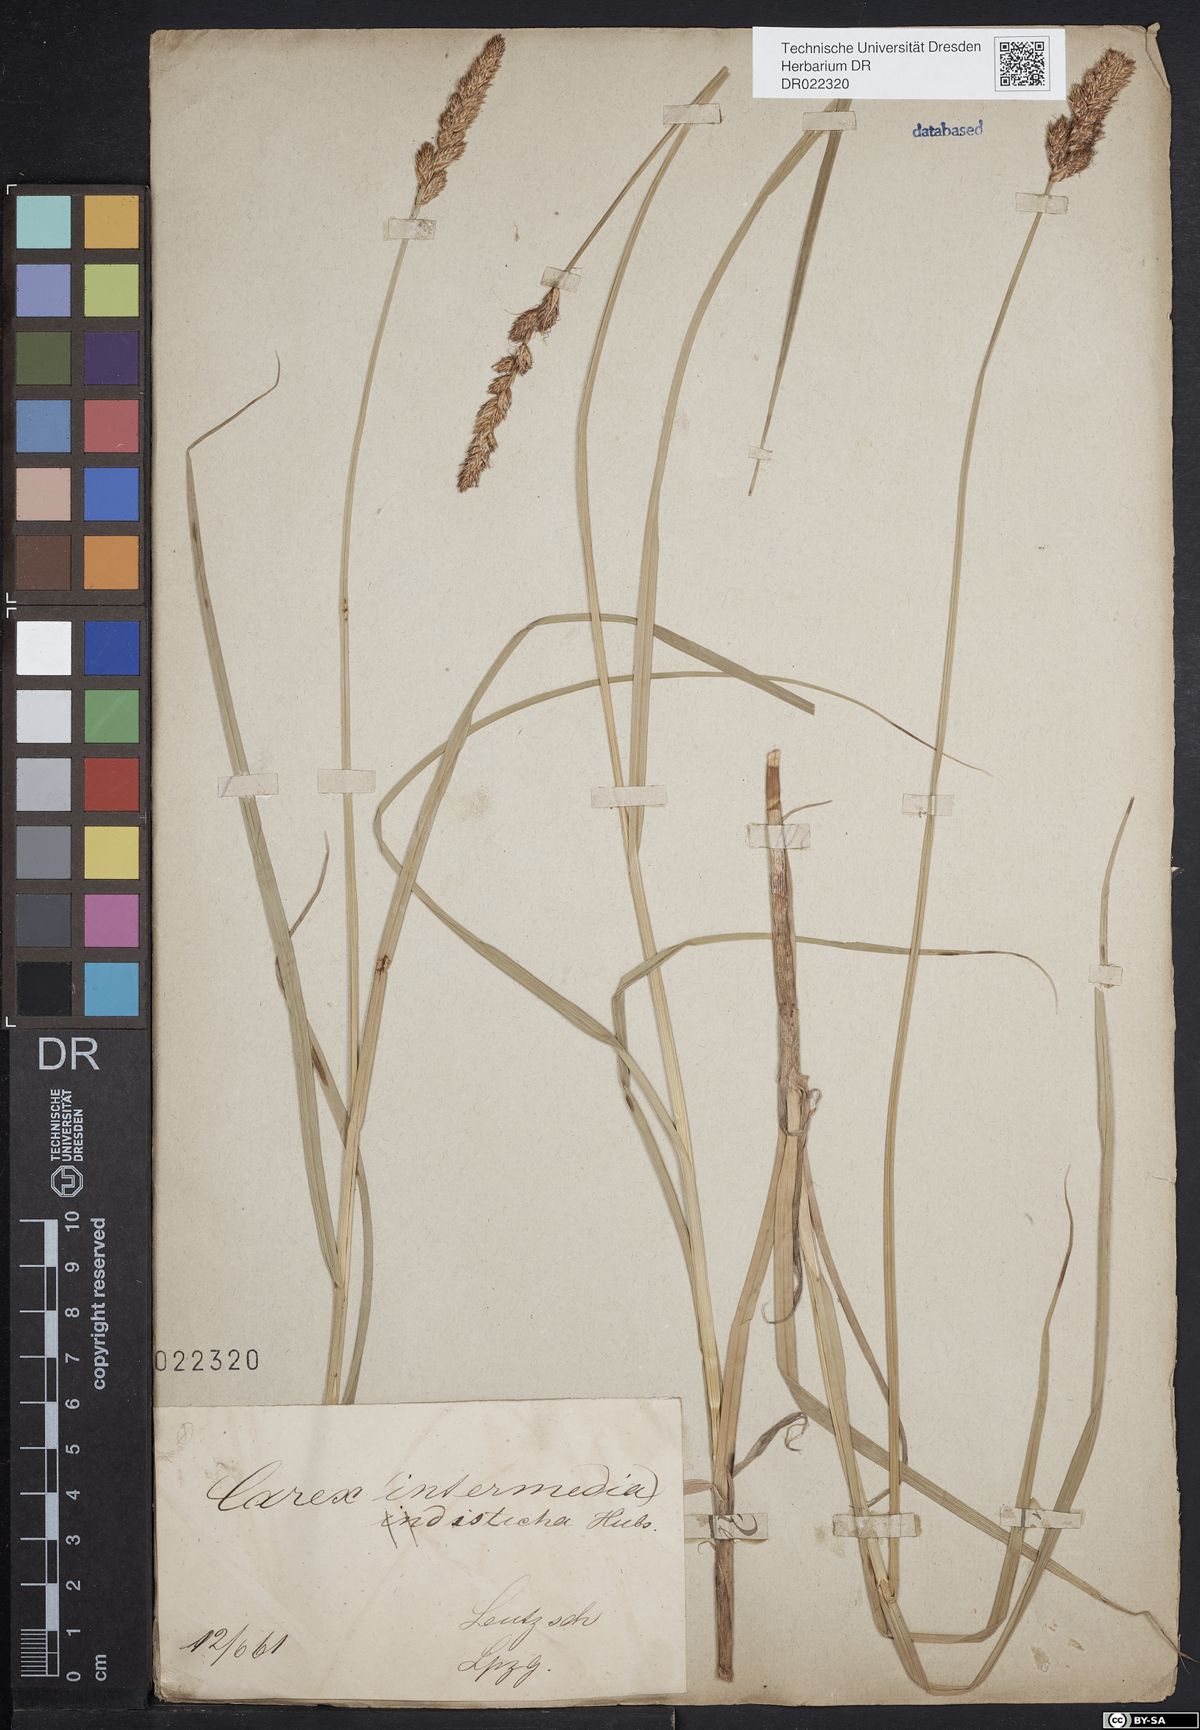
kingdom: Plantae
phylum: Tracheophyta
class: Liliopsida
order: Poales
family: Cyperaceae
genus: Carex
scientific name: Carex disticha
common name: Brown sedge
